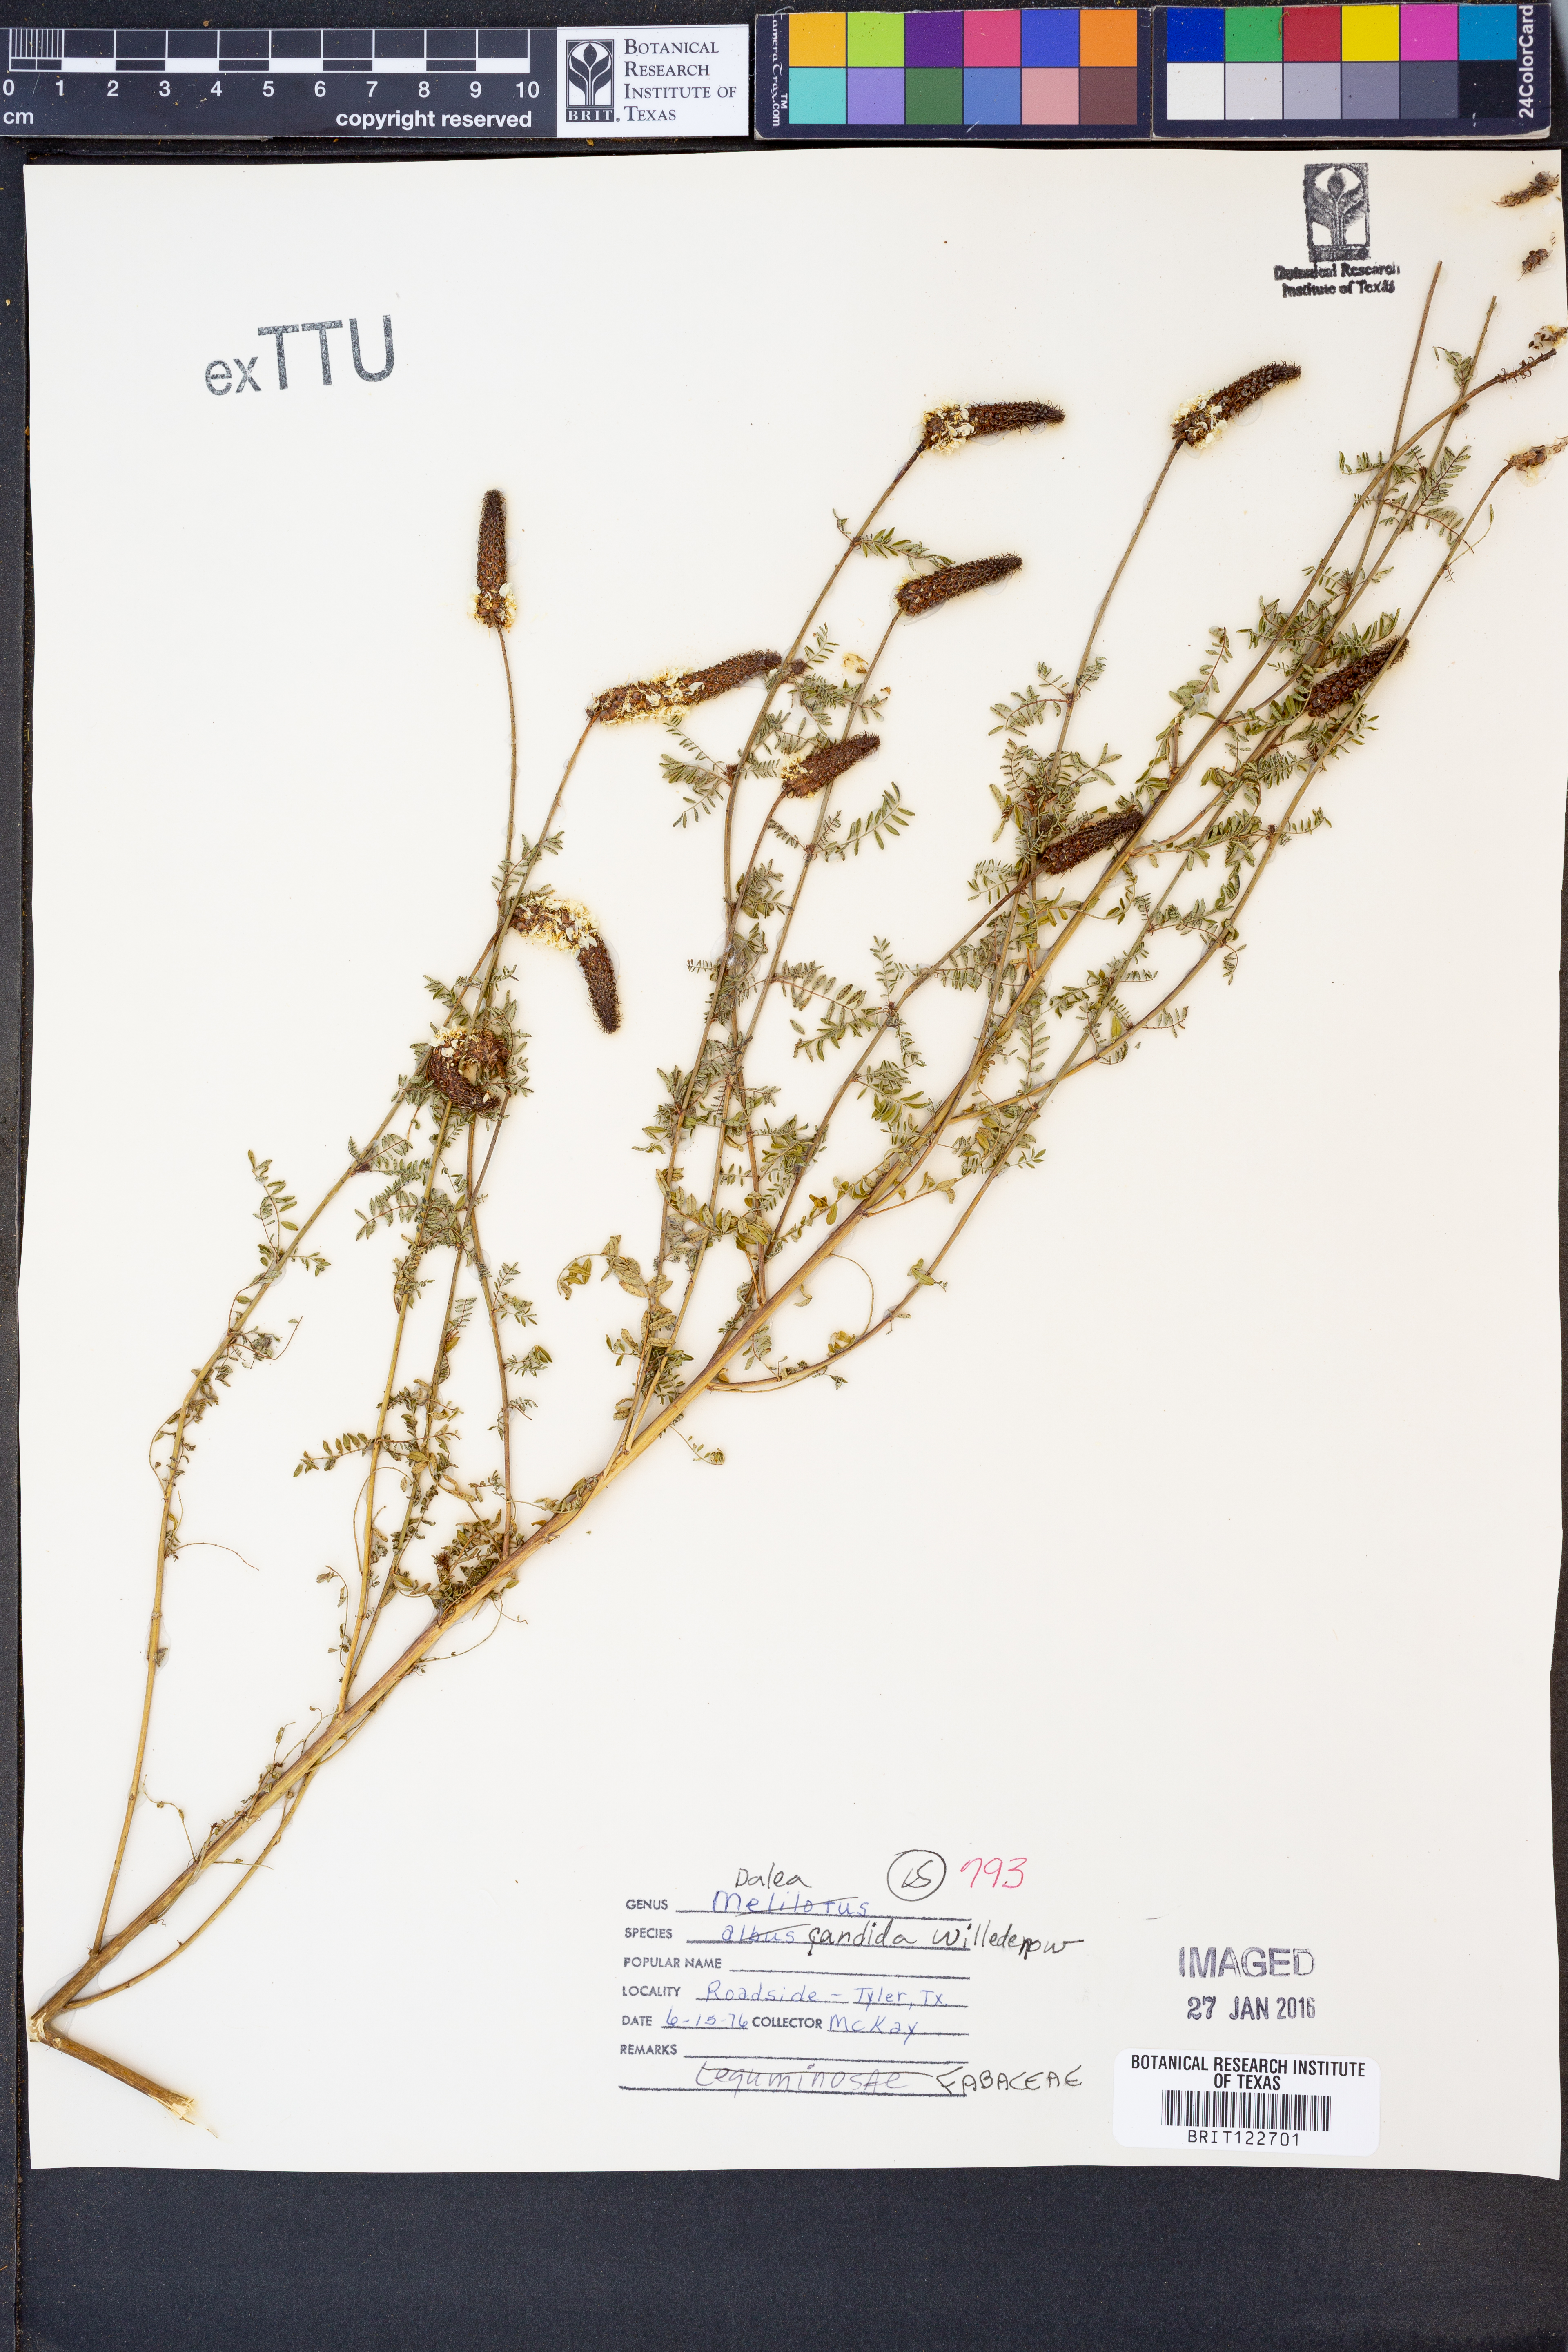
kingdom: Plantae
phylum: Tracheophyta
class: Magnoliopsida
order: Fabales
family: Fabaceae
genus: Dalea
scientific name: Dalea candida
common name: White prairie-clover
